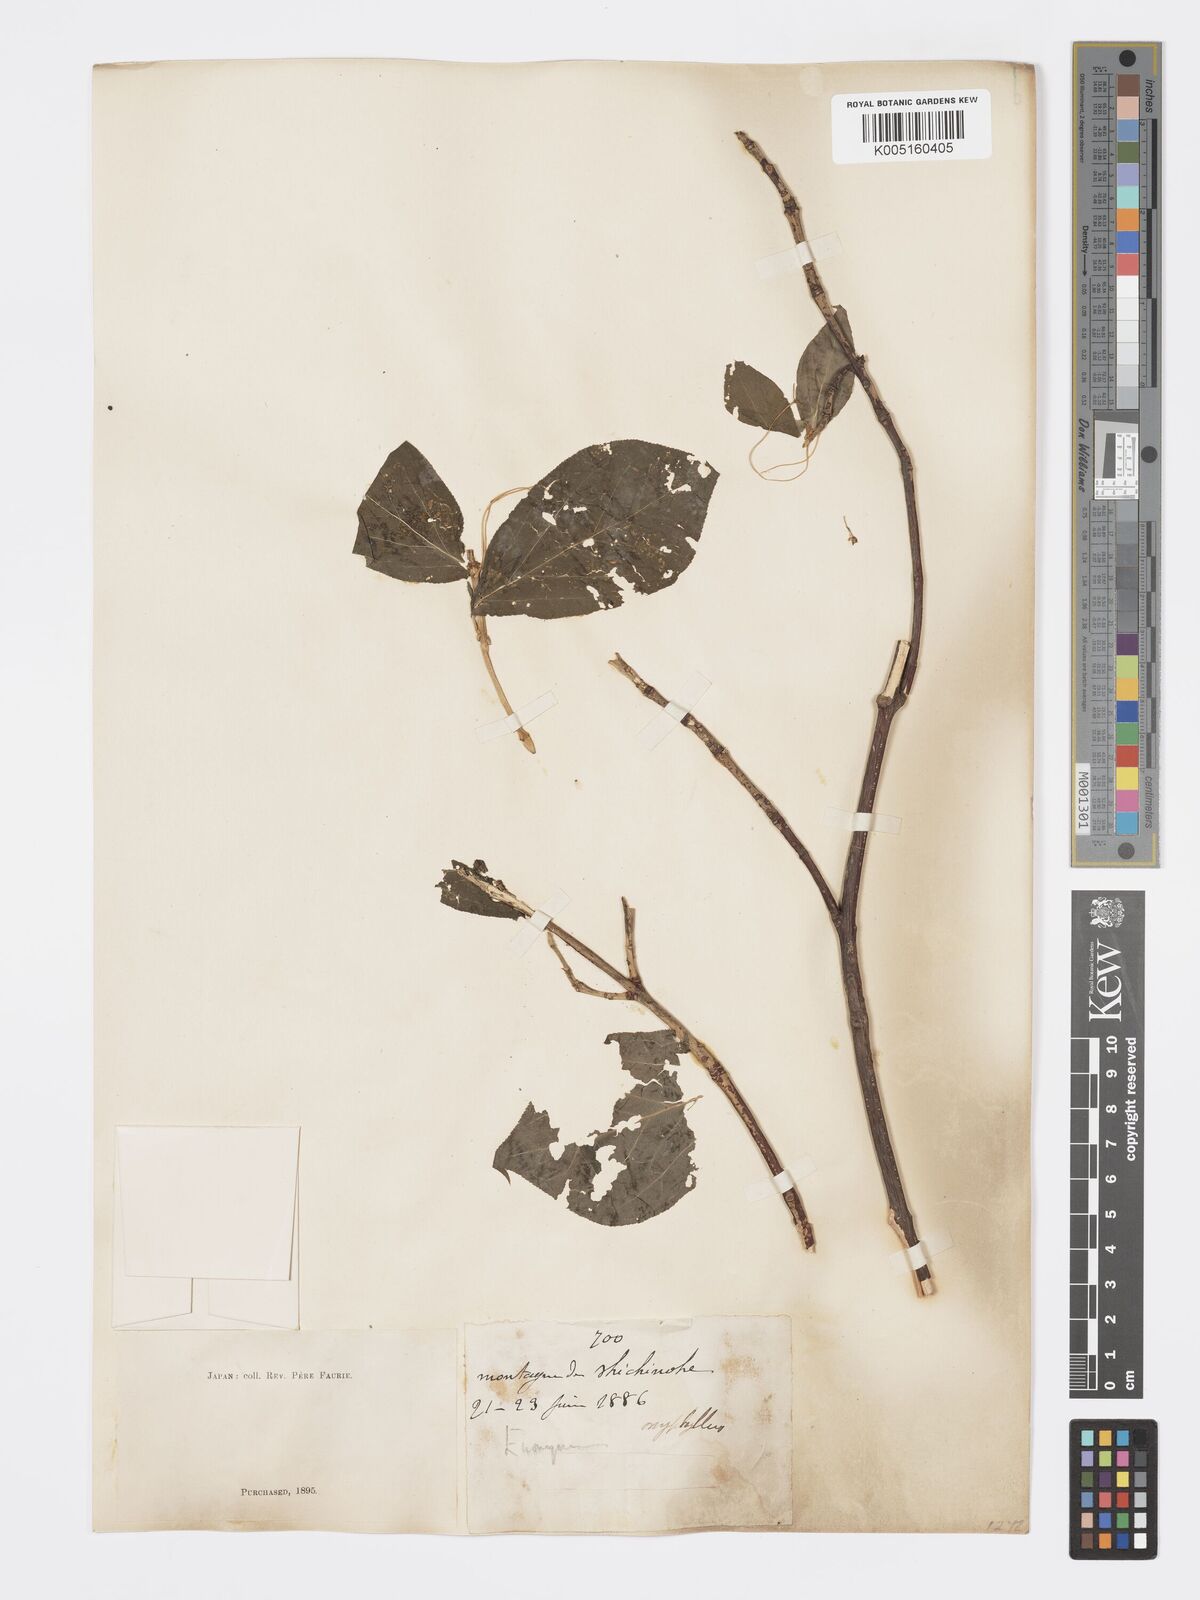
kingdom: Plantae
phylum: Tracheophyta
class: Magnoliopsida
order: Celastrales
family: Celastraceae
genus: Euonymus
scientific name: Euonymus
